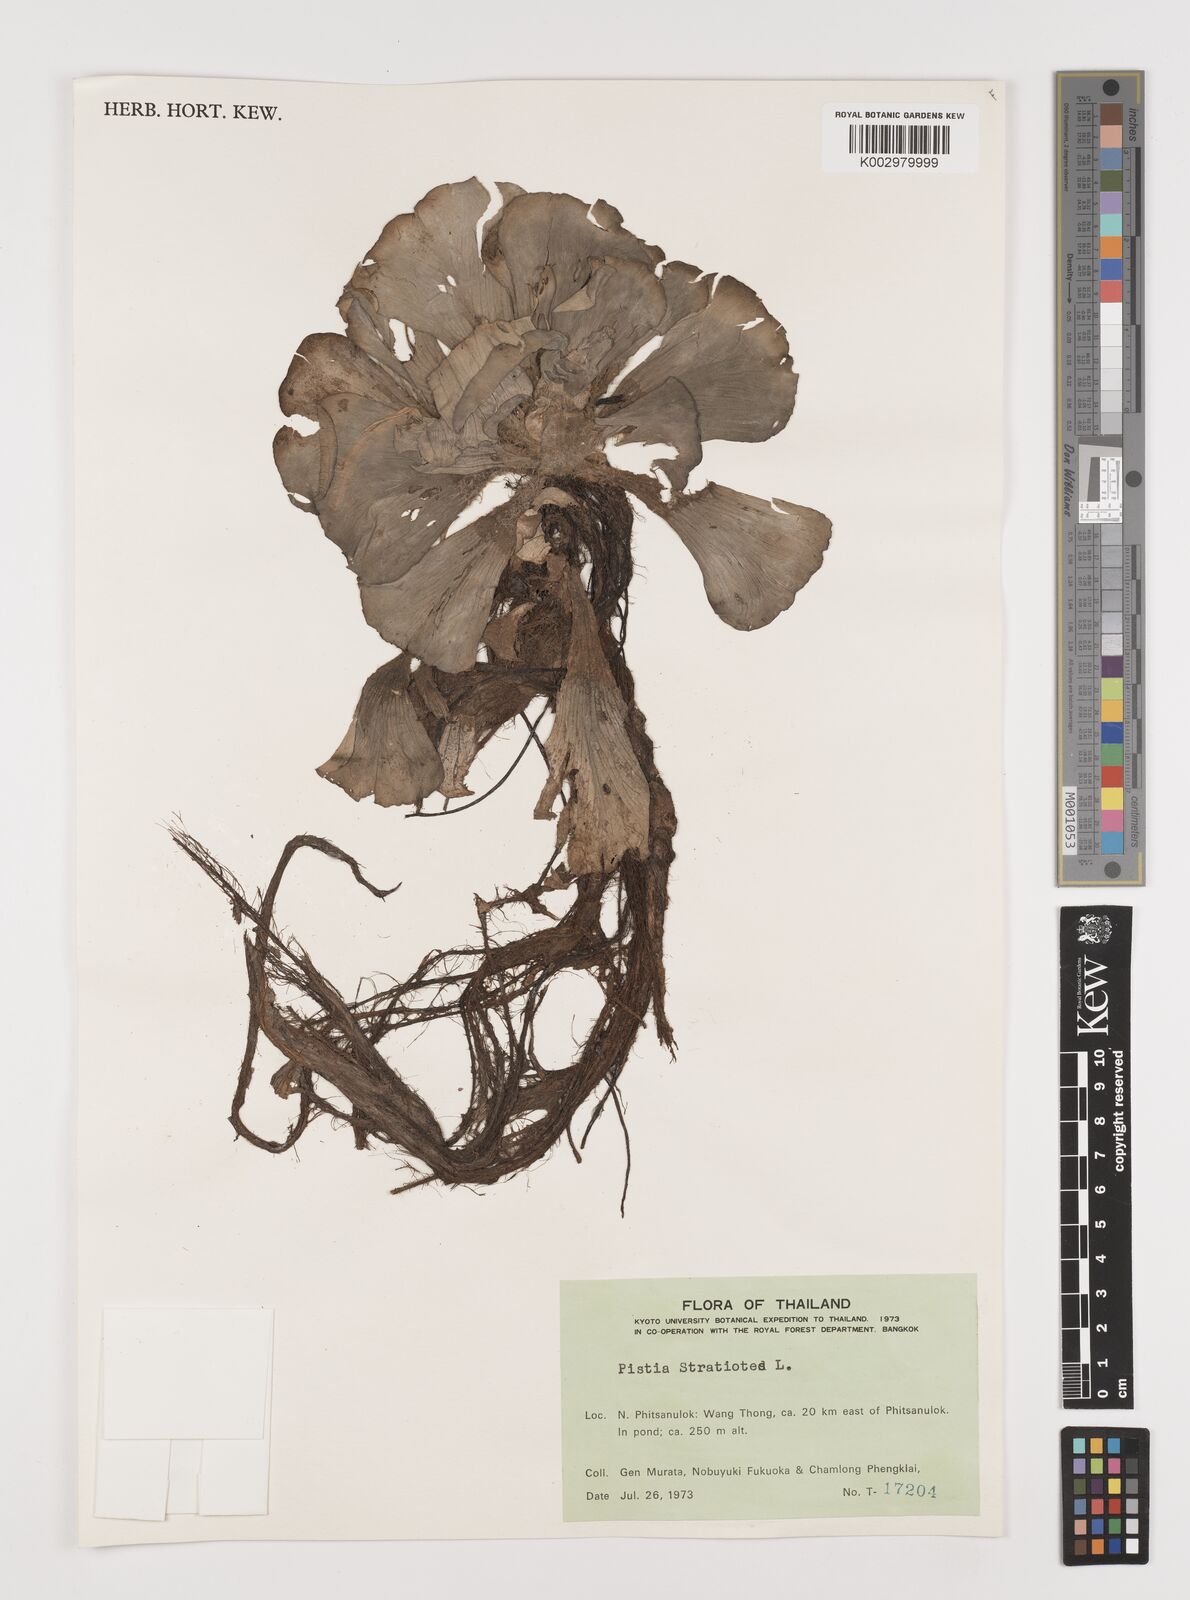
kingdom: Plantae
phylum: Tracheophyta
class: Liliopsida
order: Alismatales
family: Araceae
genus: Pistia
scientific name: Pistia stratiotes
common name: Water lettuce
